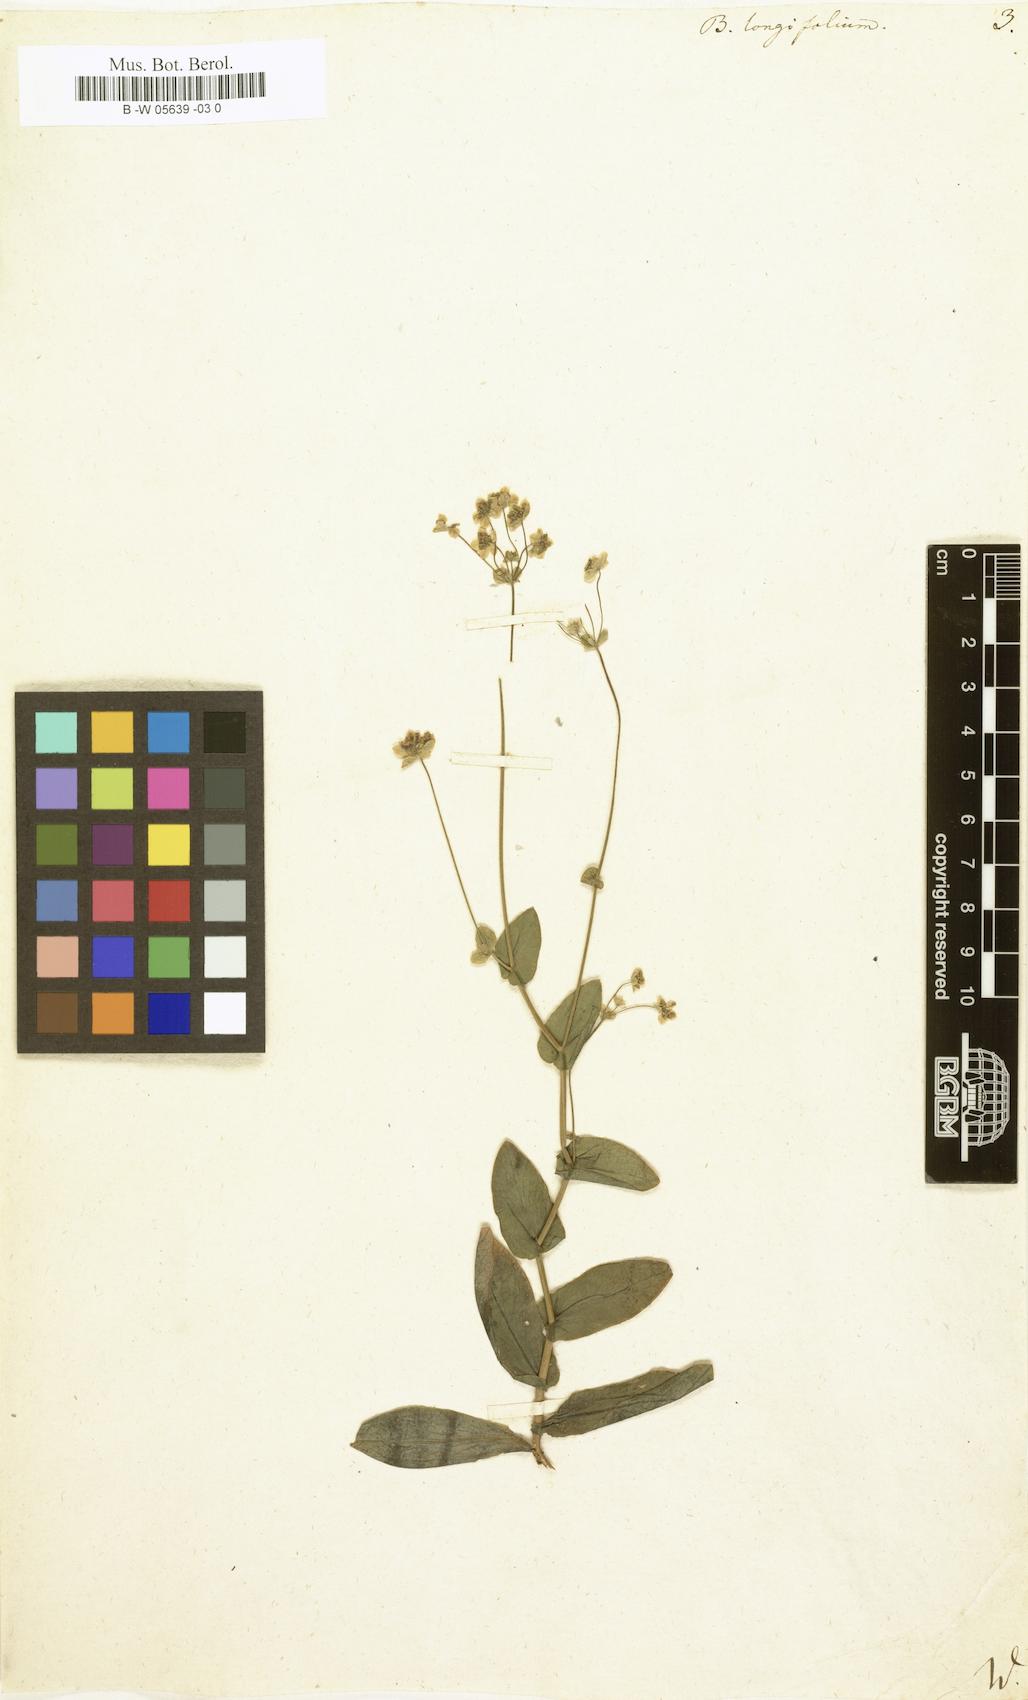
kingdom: Plantae
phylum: Tracheophyta
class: Magnoliopsida
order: Apiales
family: Apiaceae
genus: Bupleurum
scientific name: Bupleurum longifolium
